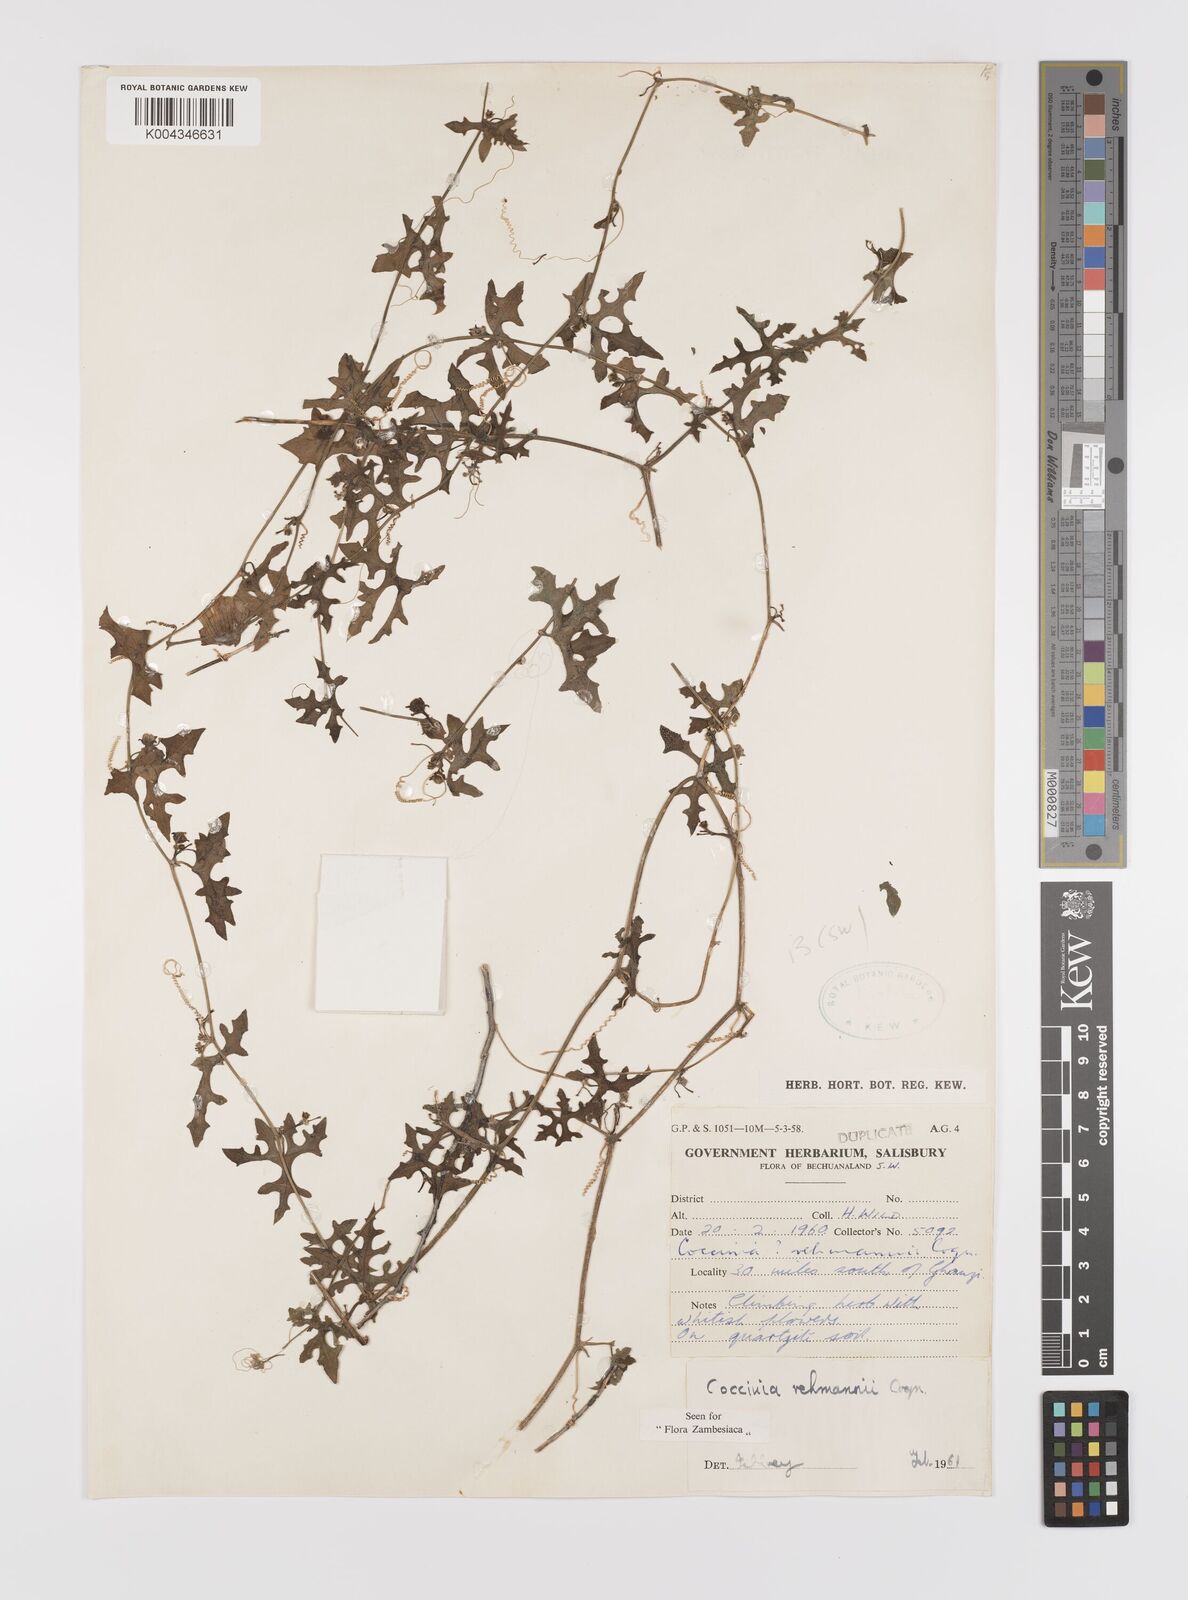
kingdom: Plantae
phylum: Tracheophyta
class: Magnoliopsida
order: Cucurbitales
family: Cucurbitaceae
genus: Coccinia
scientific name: Coccinia rehmannii
